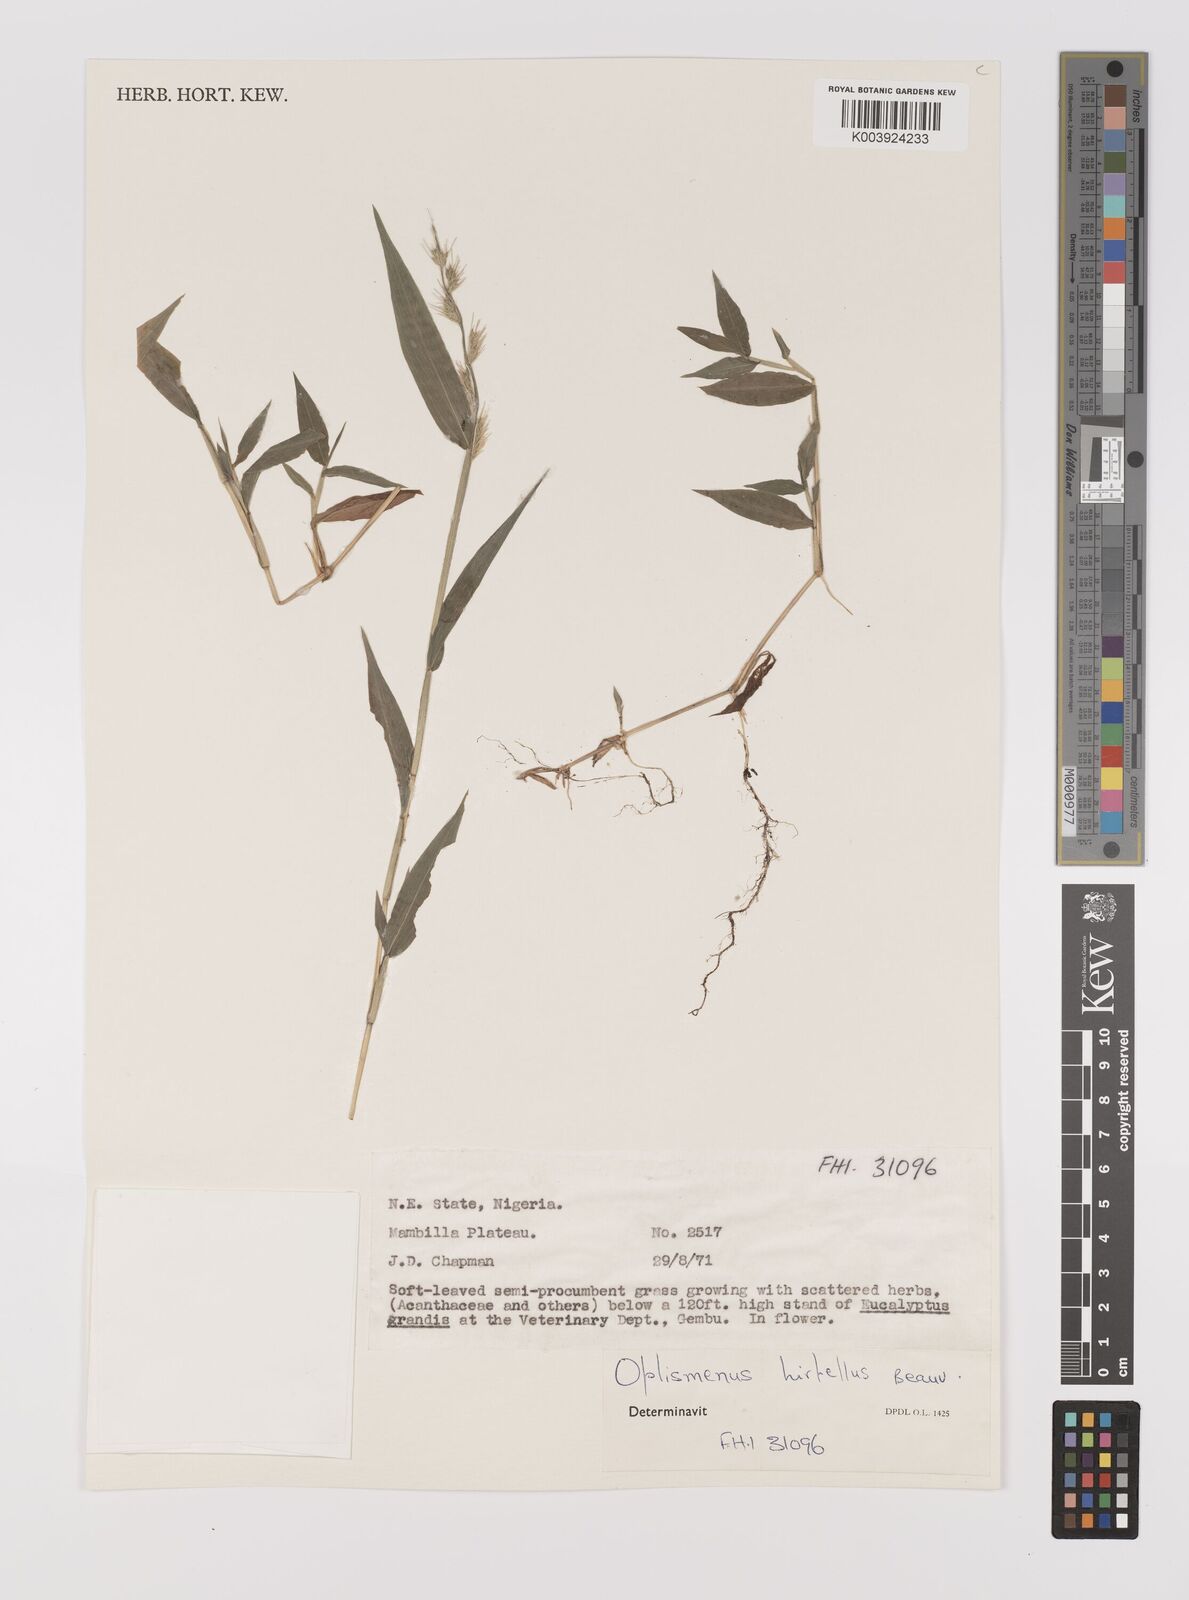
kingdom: Plantae
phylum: Tracheophyta
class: Liliopsida
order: Poales
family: Poaceae
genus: Oplismenus
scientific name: Oplismenus hirtellus
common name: Basketgrass
